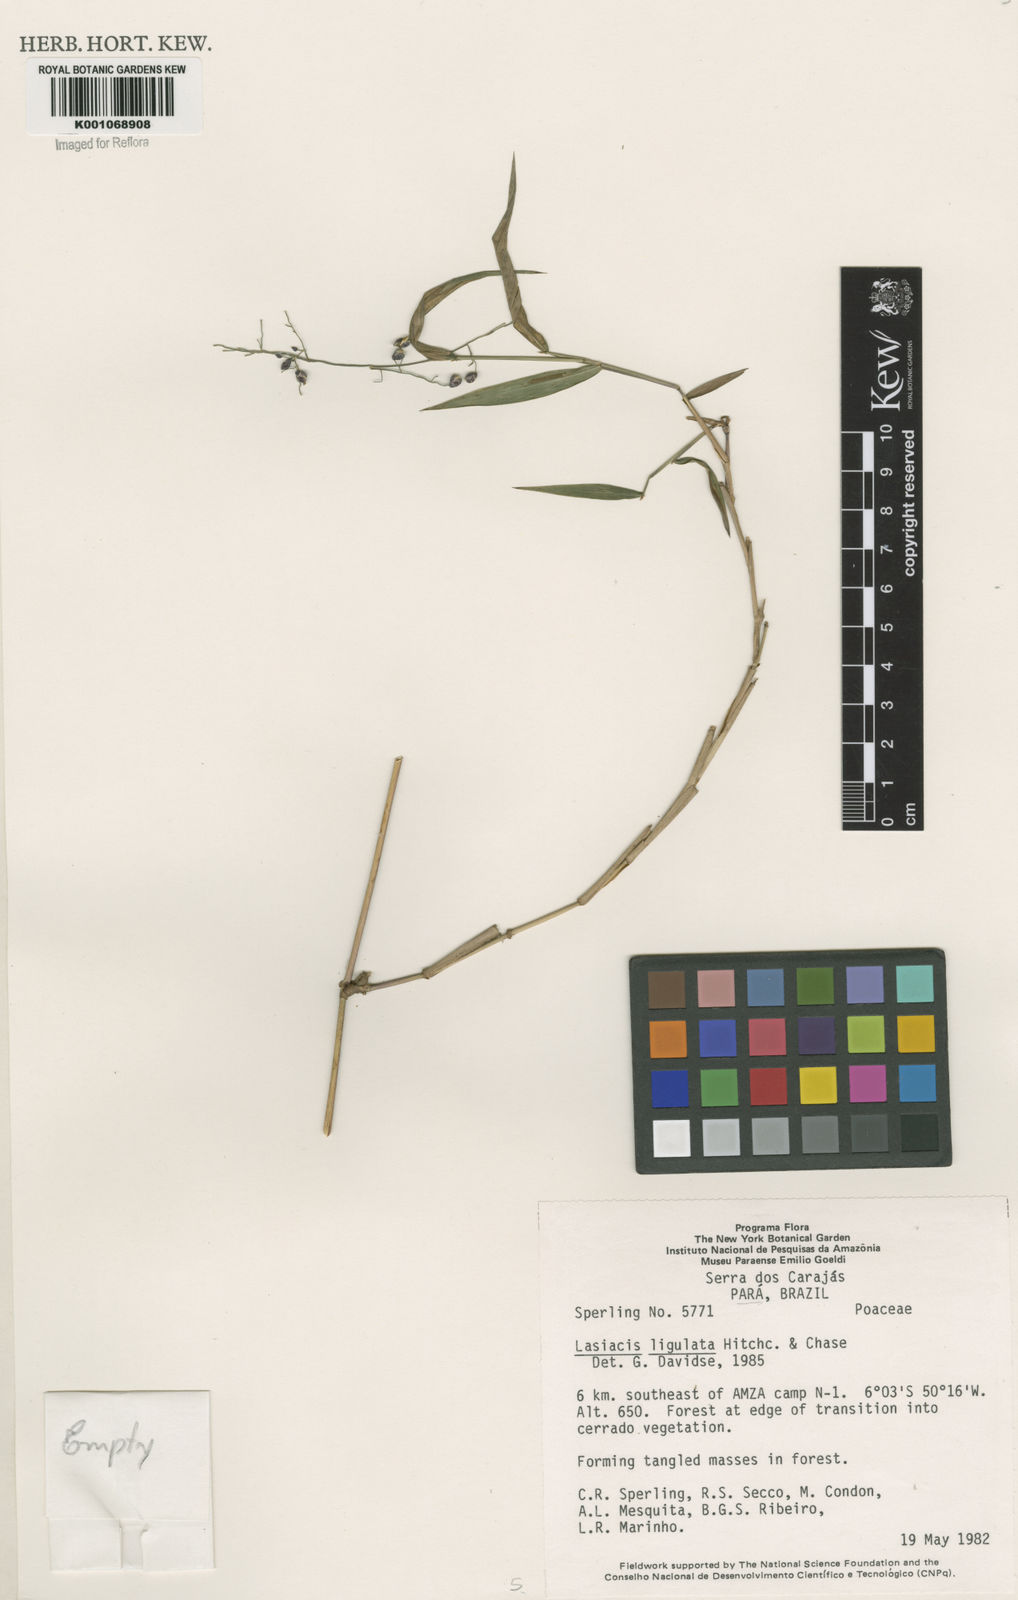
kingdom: Plantae
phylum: Tracheophyta
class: Liliopsida
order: Poales
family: Poaceae
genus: Lasiacis
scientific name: Lasiacis ligulata
